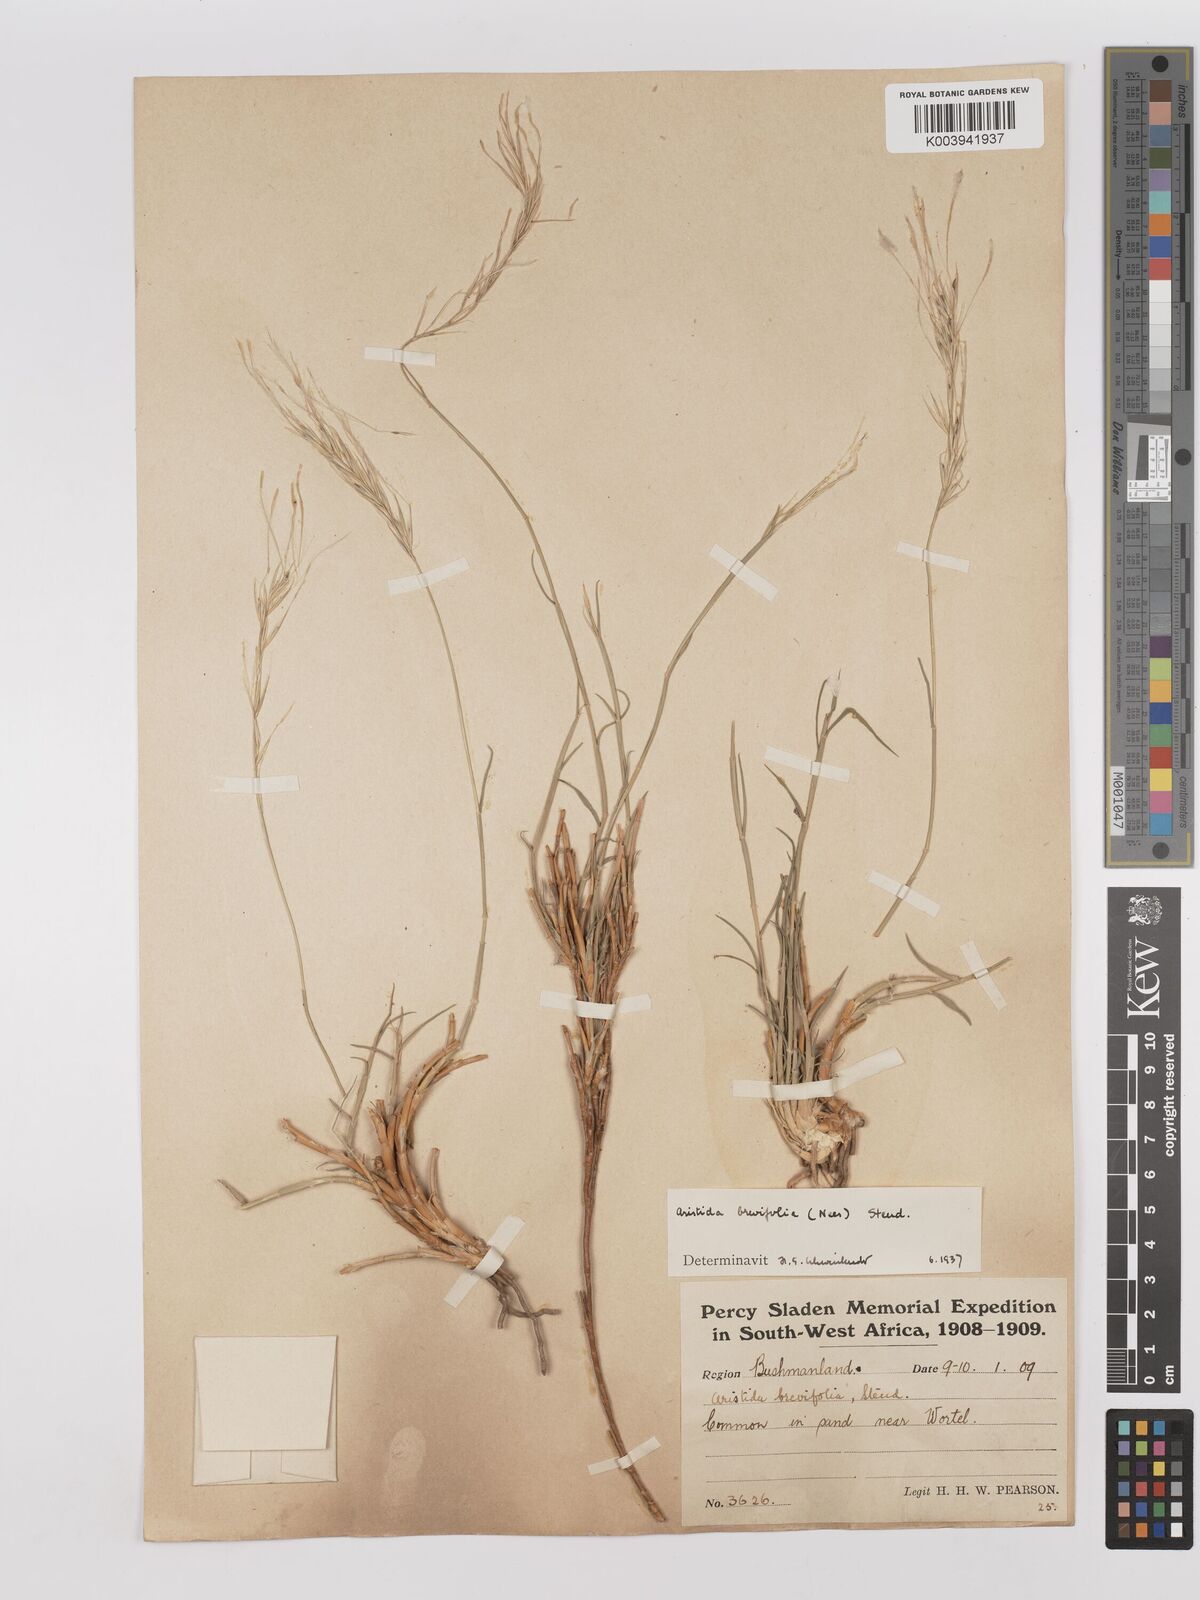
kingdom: Plantae
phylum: Tracheophyta
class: Liliopsida
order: Poales
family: Poaceae
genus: Stipagrostis
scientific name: Stipagrostis brevifolia
